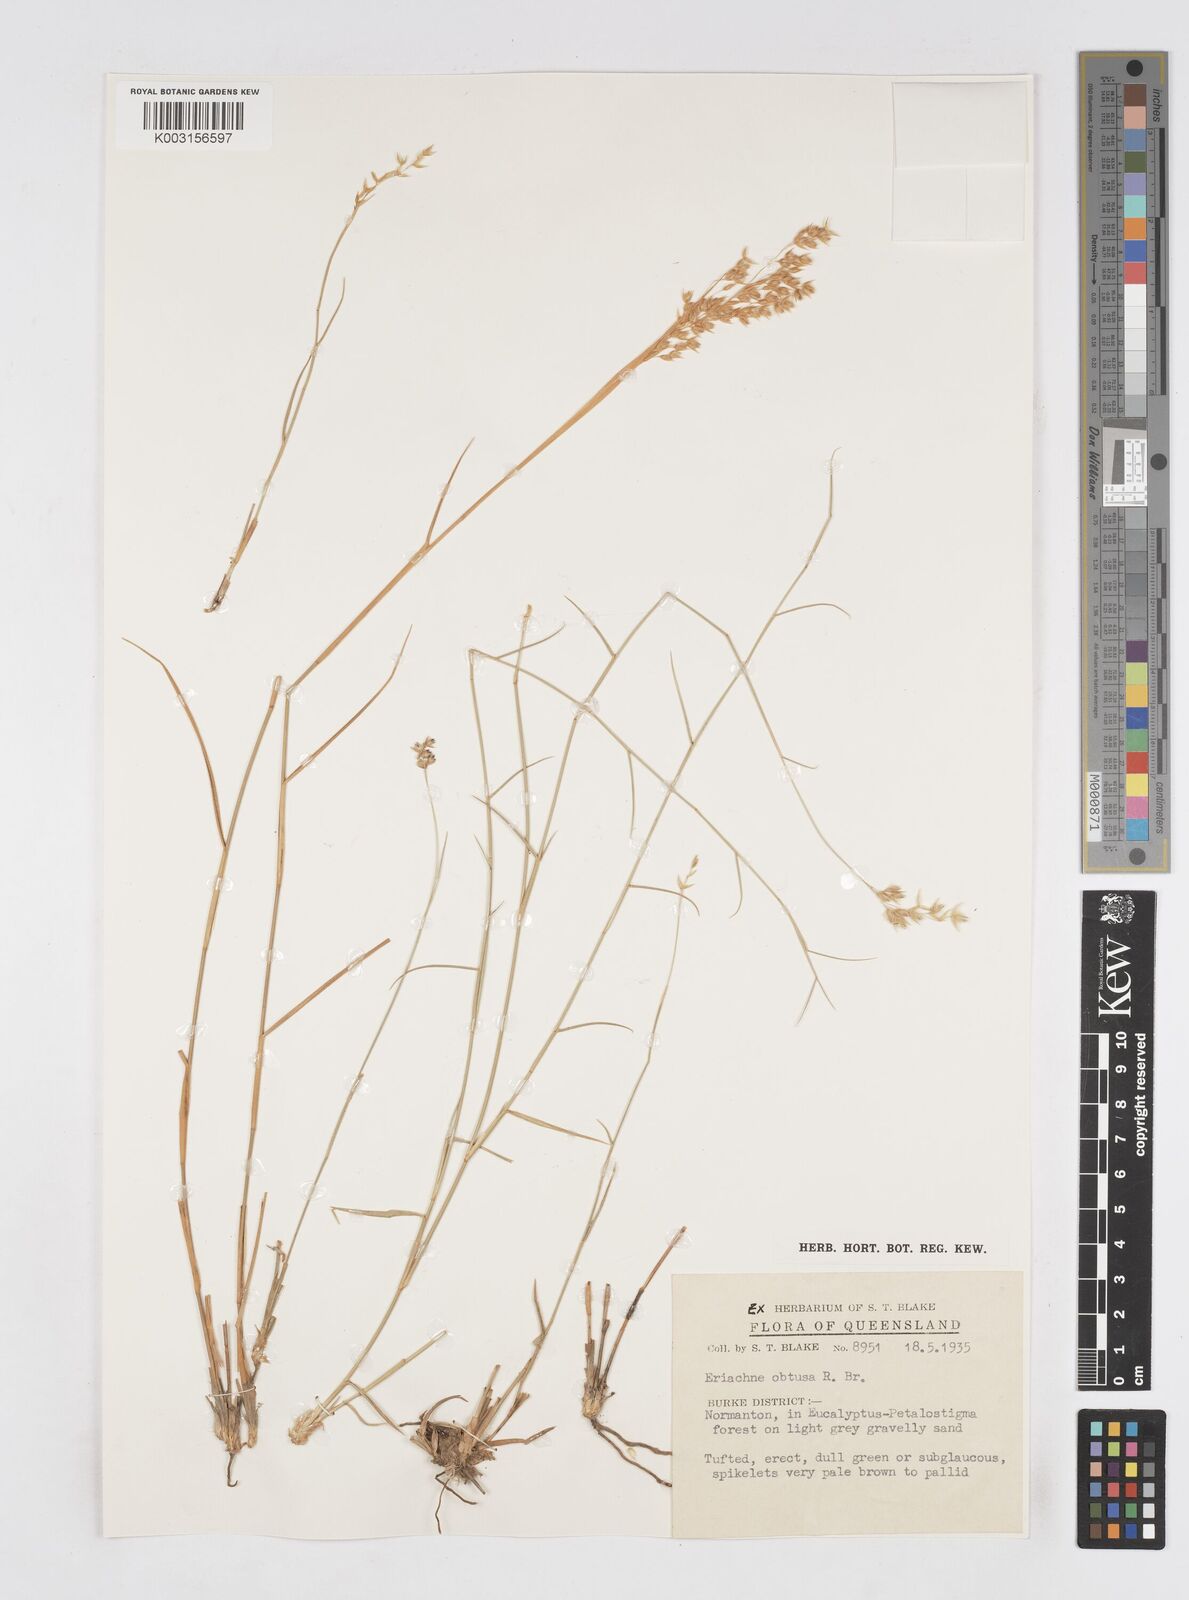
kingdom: Plantae
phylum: Tracheophyta
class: Liliopsida
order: Poales
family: Poaceae
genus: Eriachne
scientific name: Eriachne obtusa
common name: Northern wanderrie grass
